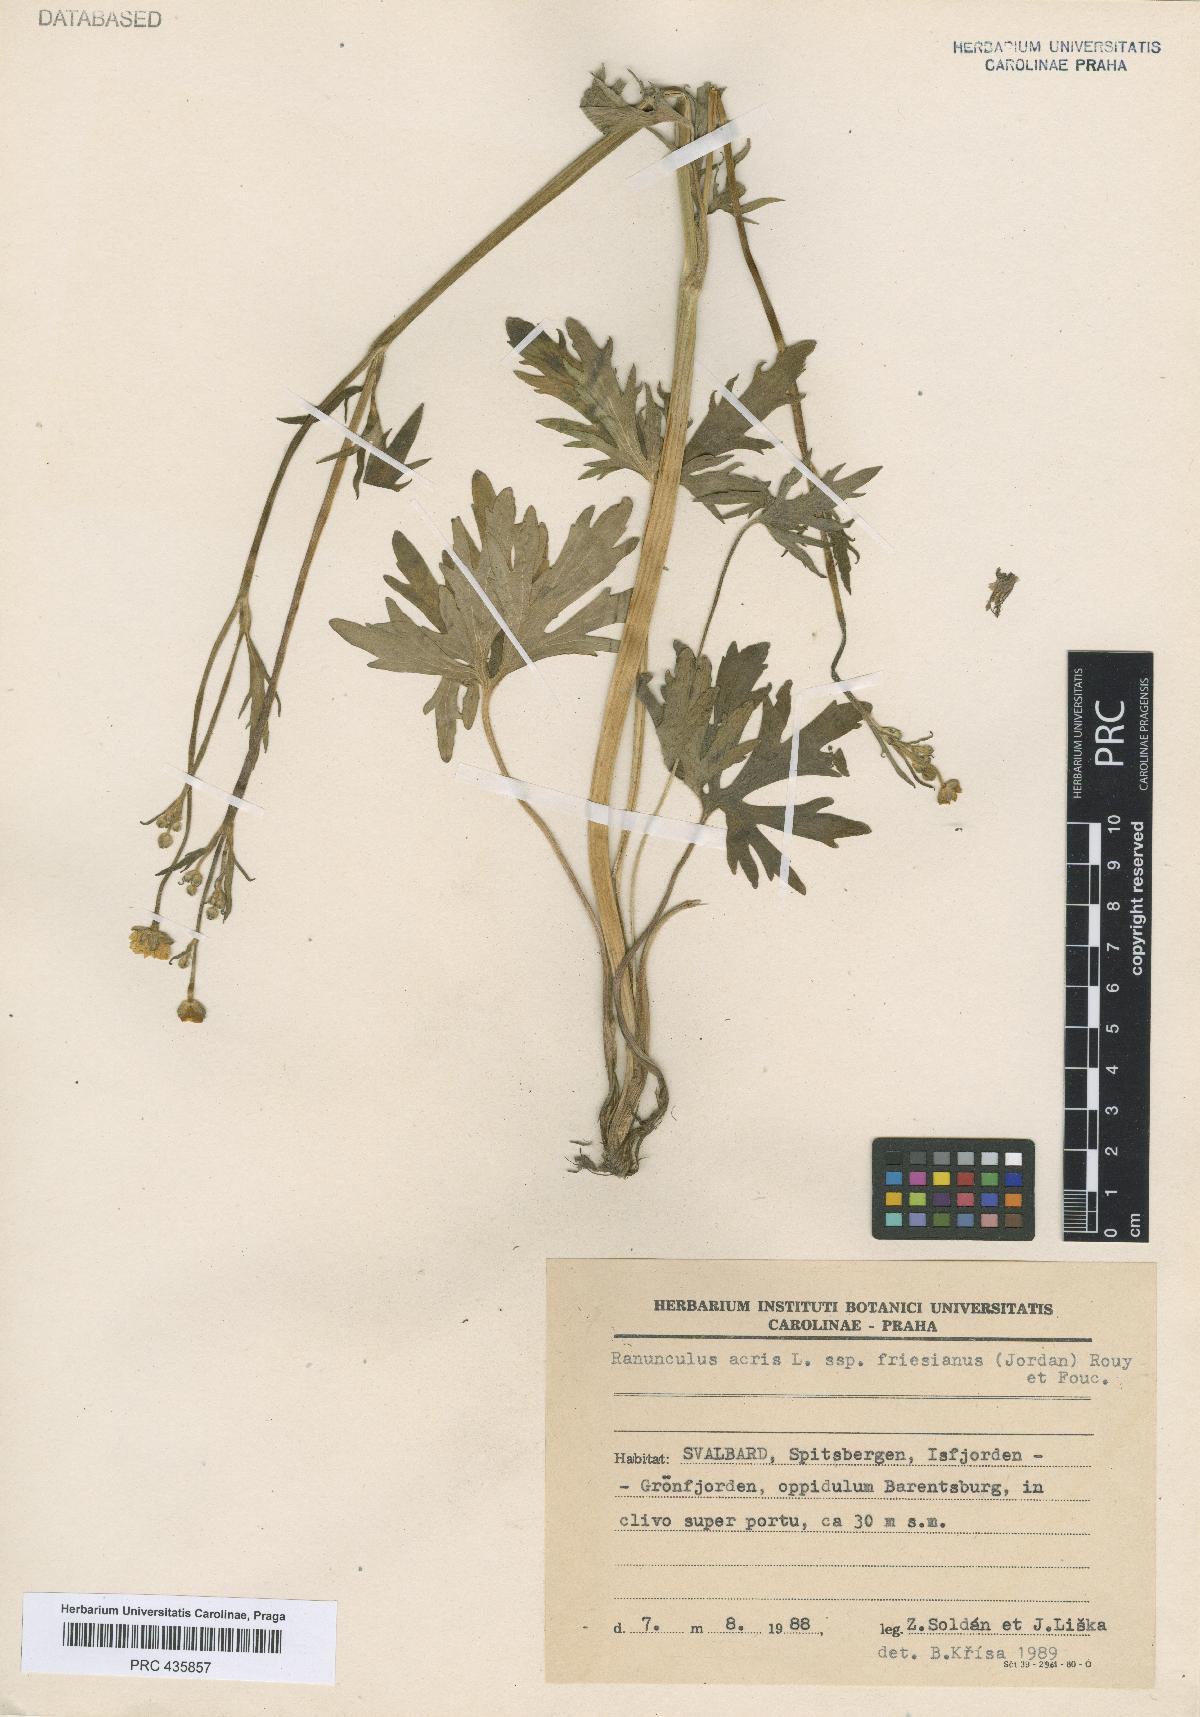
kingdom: Plantae
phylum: Tracheophyta
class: Magnoliopsida
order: Ranunculales
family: Ranunculaceae
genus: Ranunculus
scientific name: Ranunculus acris
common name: Meadow buttercup
